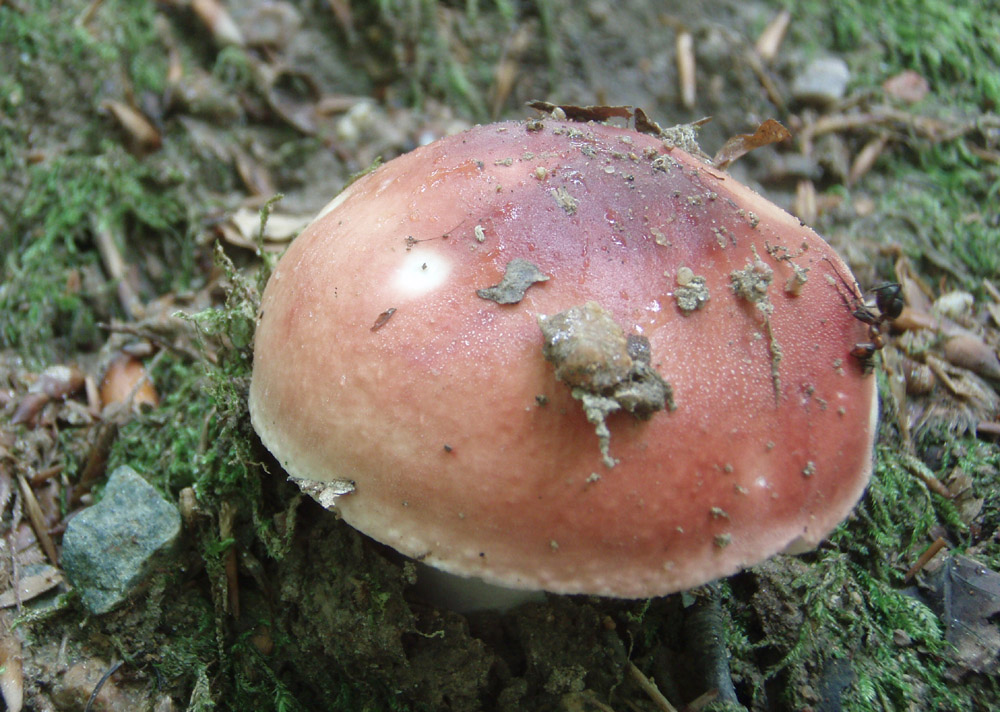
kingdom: Fungi
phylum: Basidiomycota
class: Agaricomycetes
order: Russulales
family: Russulaceae
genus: Russula
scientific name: Russula aurora
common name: rosa skørhat
